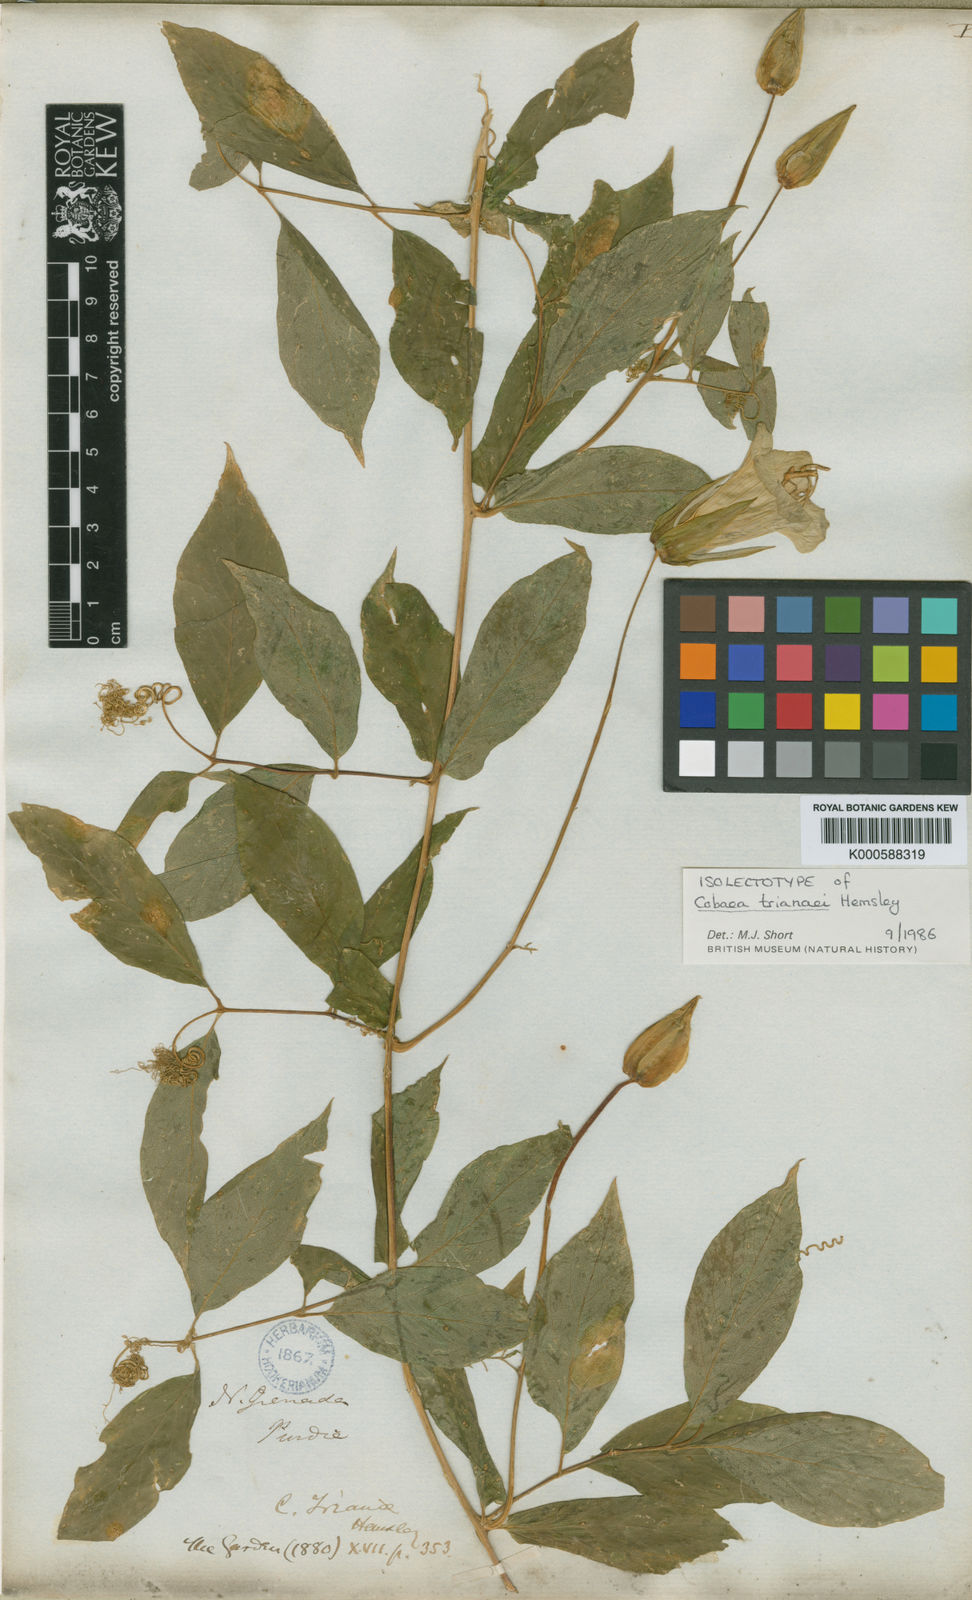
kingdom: Plantae
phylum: Tracheophyta
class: Magnoliopsida
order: Ericales
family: Polemoniaceae
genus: Cobaea
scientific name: Cobaea trianae
